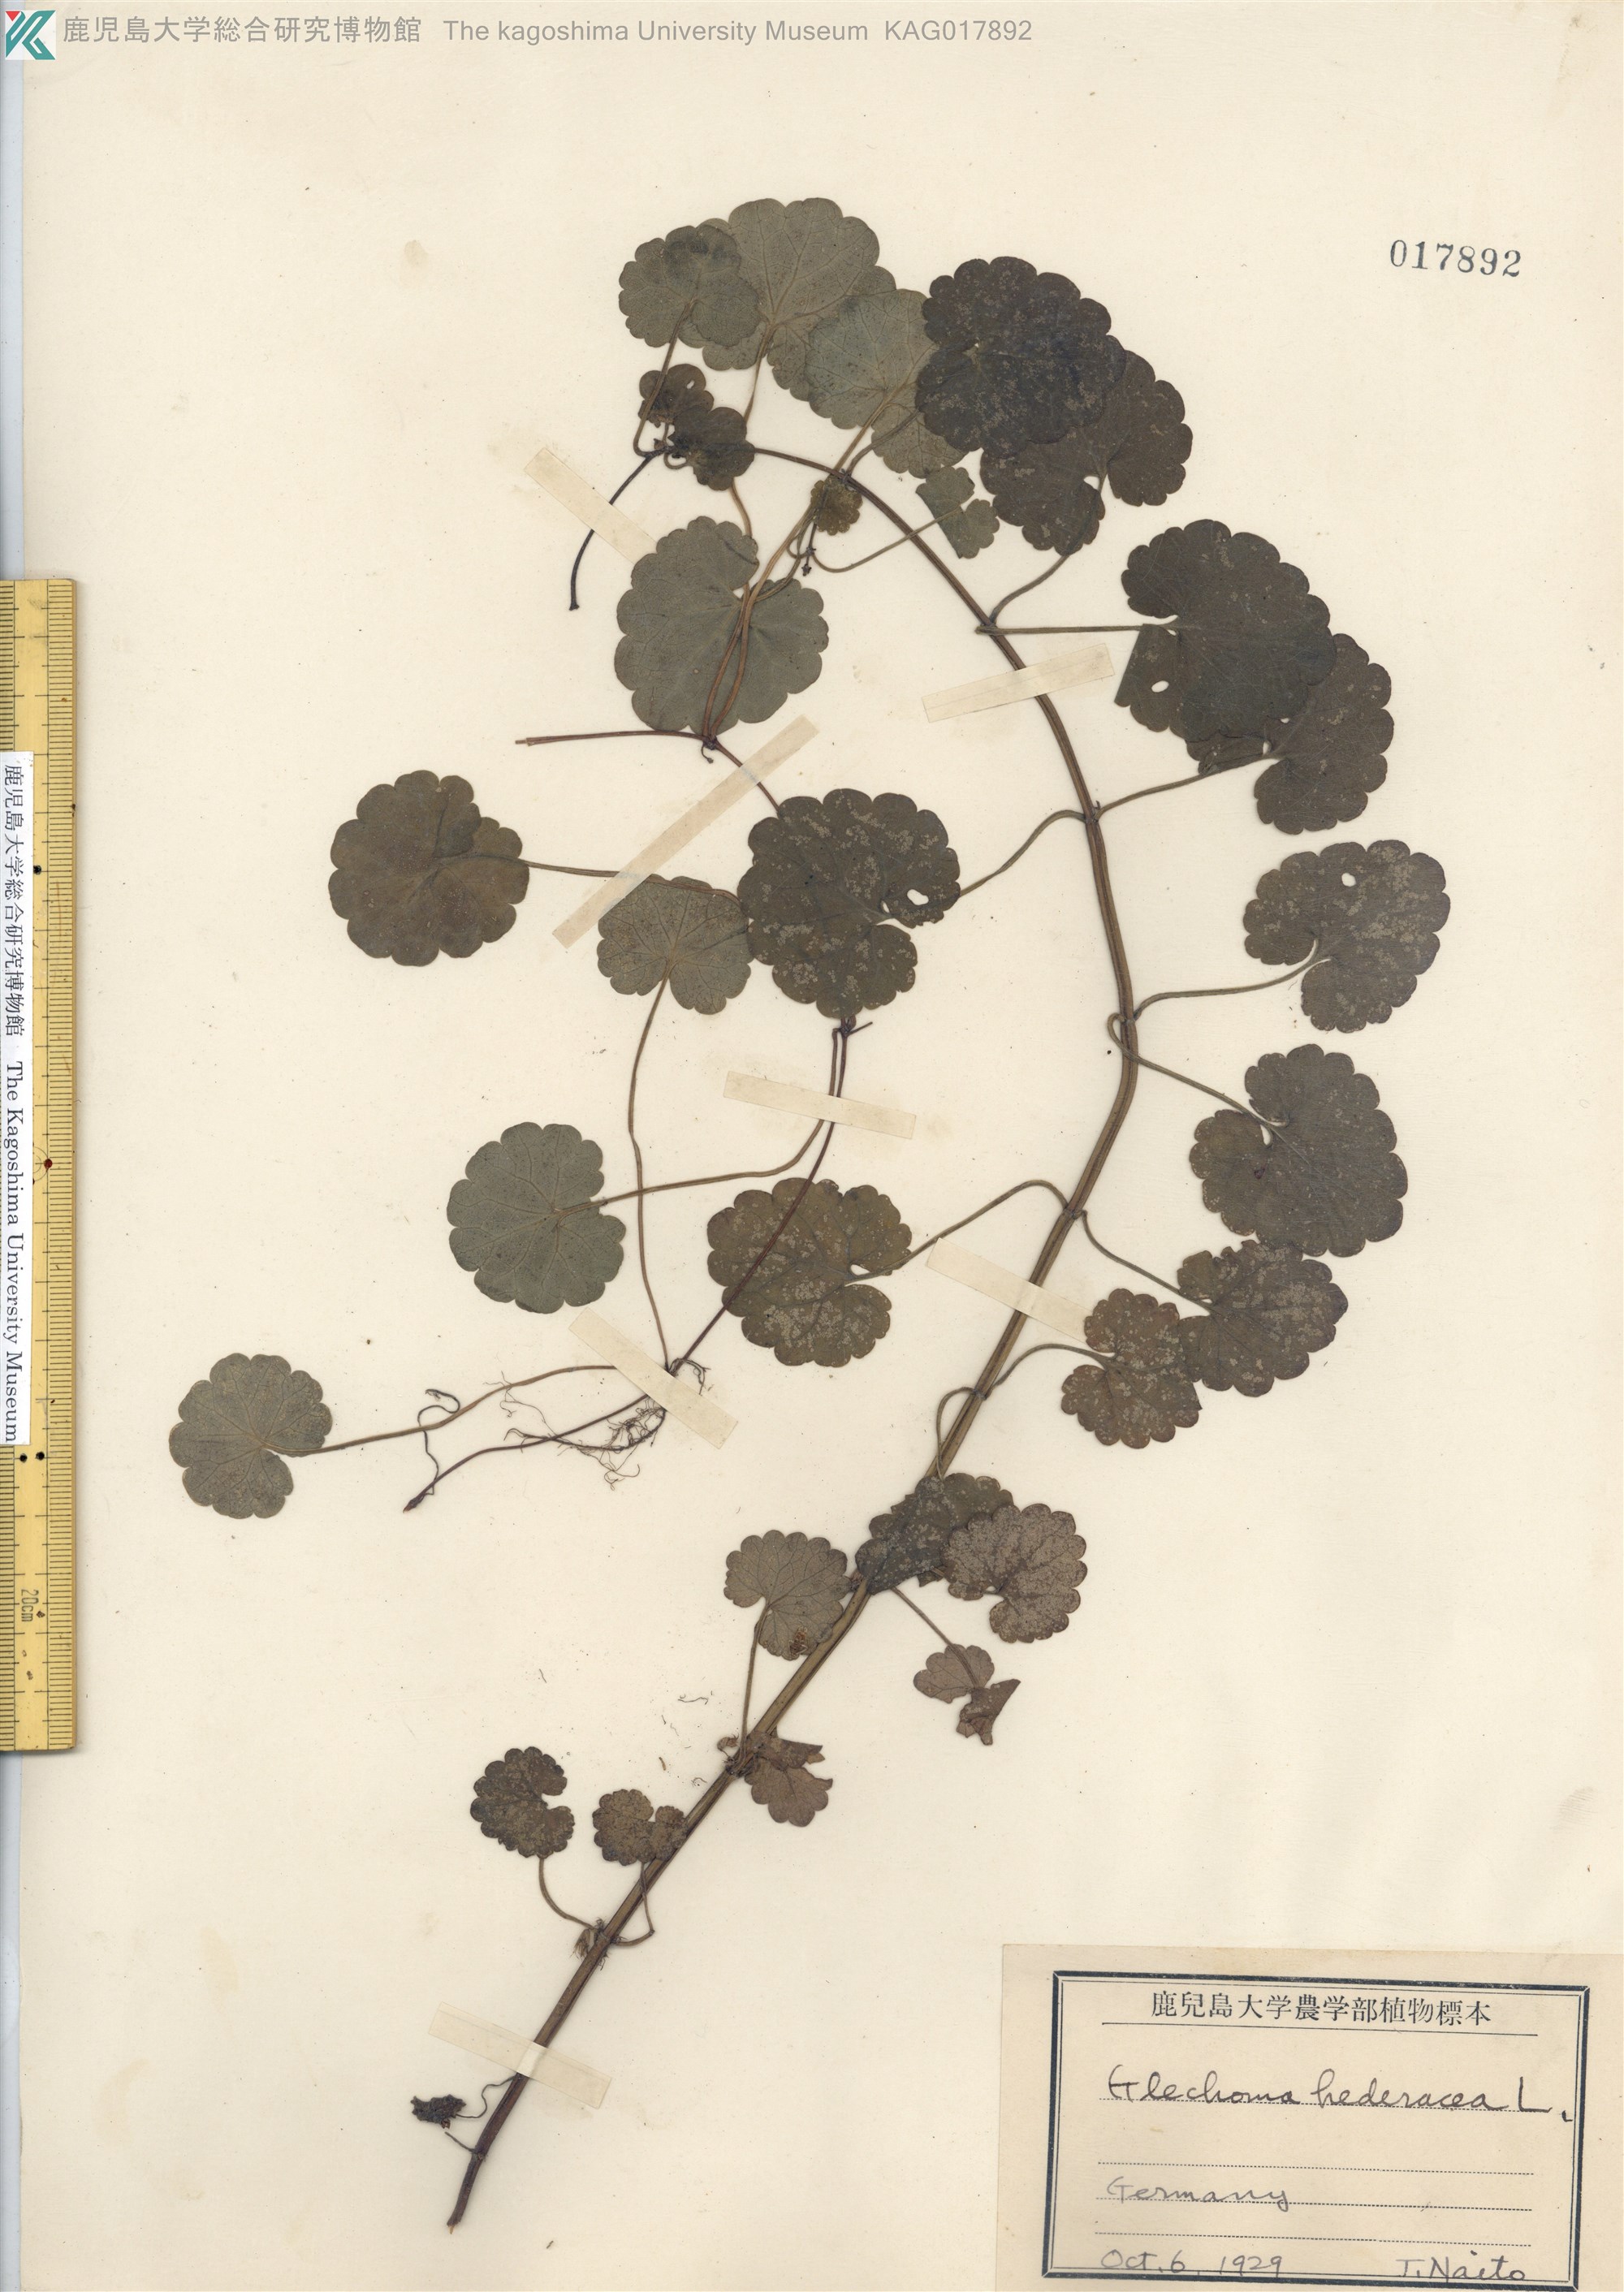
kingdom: Plantae
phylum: Tracheophyta
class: Magnoliopsida
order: Lamiales
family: Lamiaceae
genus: Glechoma
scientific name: Glechoma hederacea
